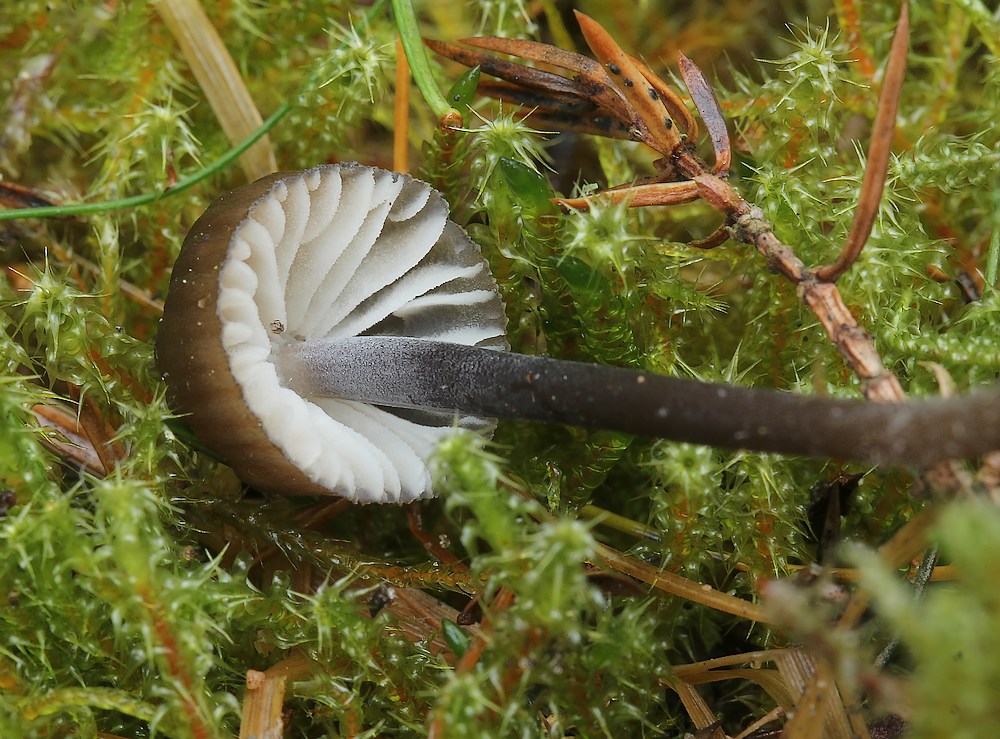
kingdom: Fungi
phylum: Basidiomycota
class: Agaricomycetes
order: Agaricales
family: Mycenaceae
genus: Mycena
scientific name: Mycena galopus
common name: hvidmælket huesvamp
